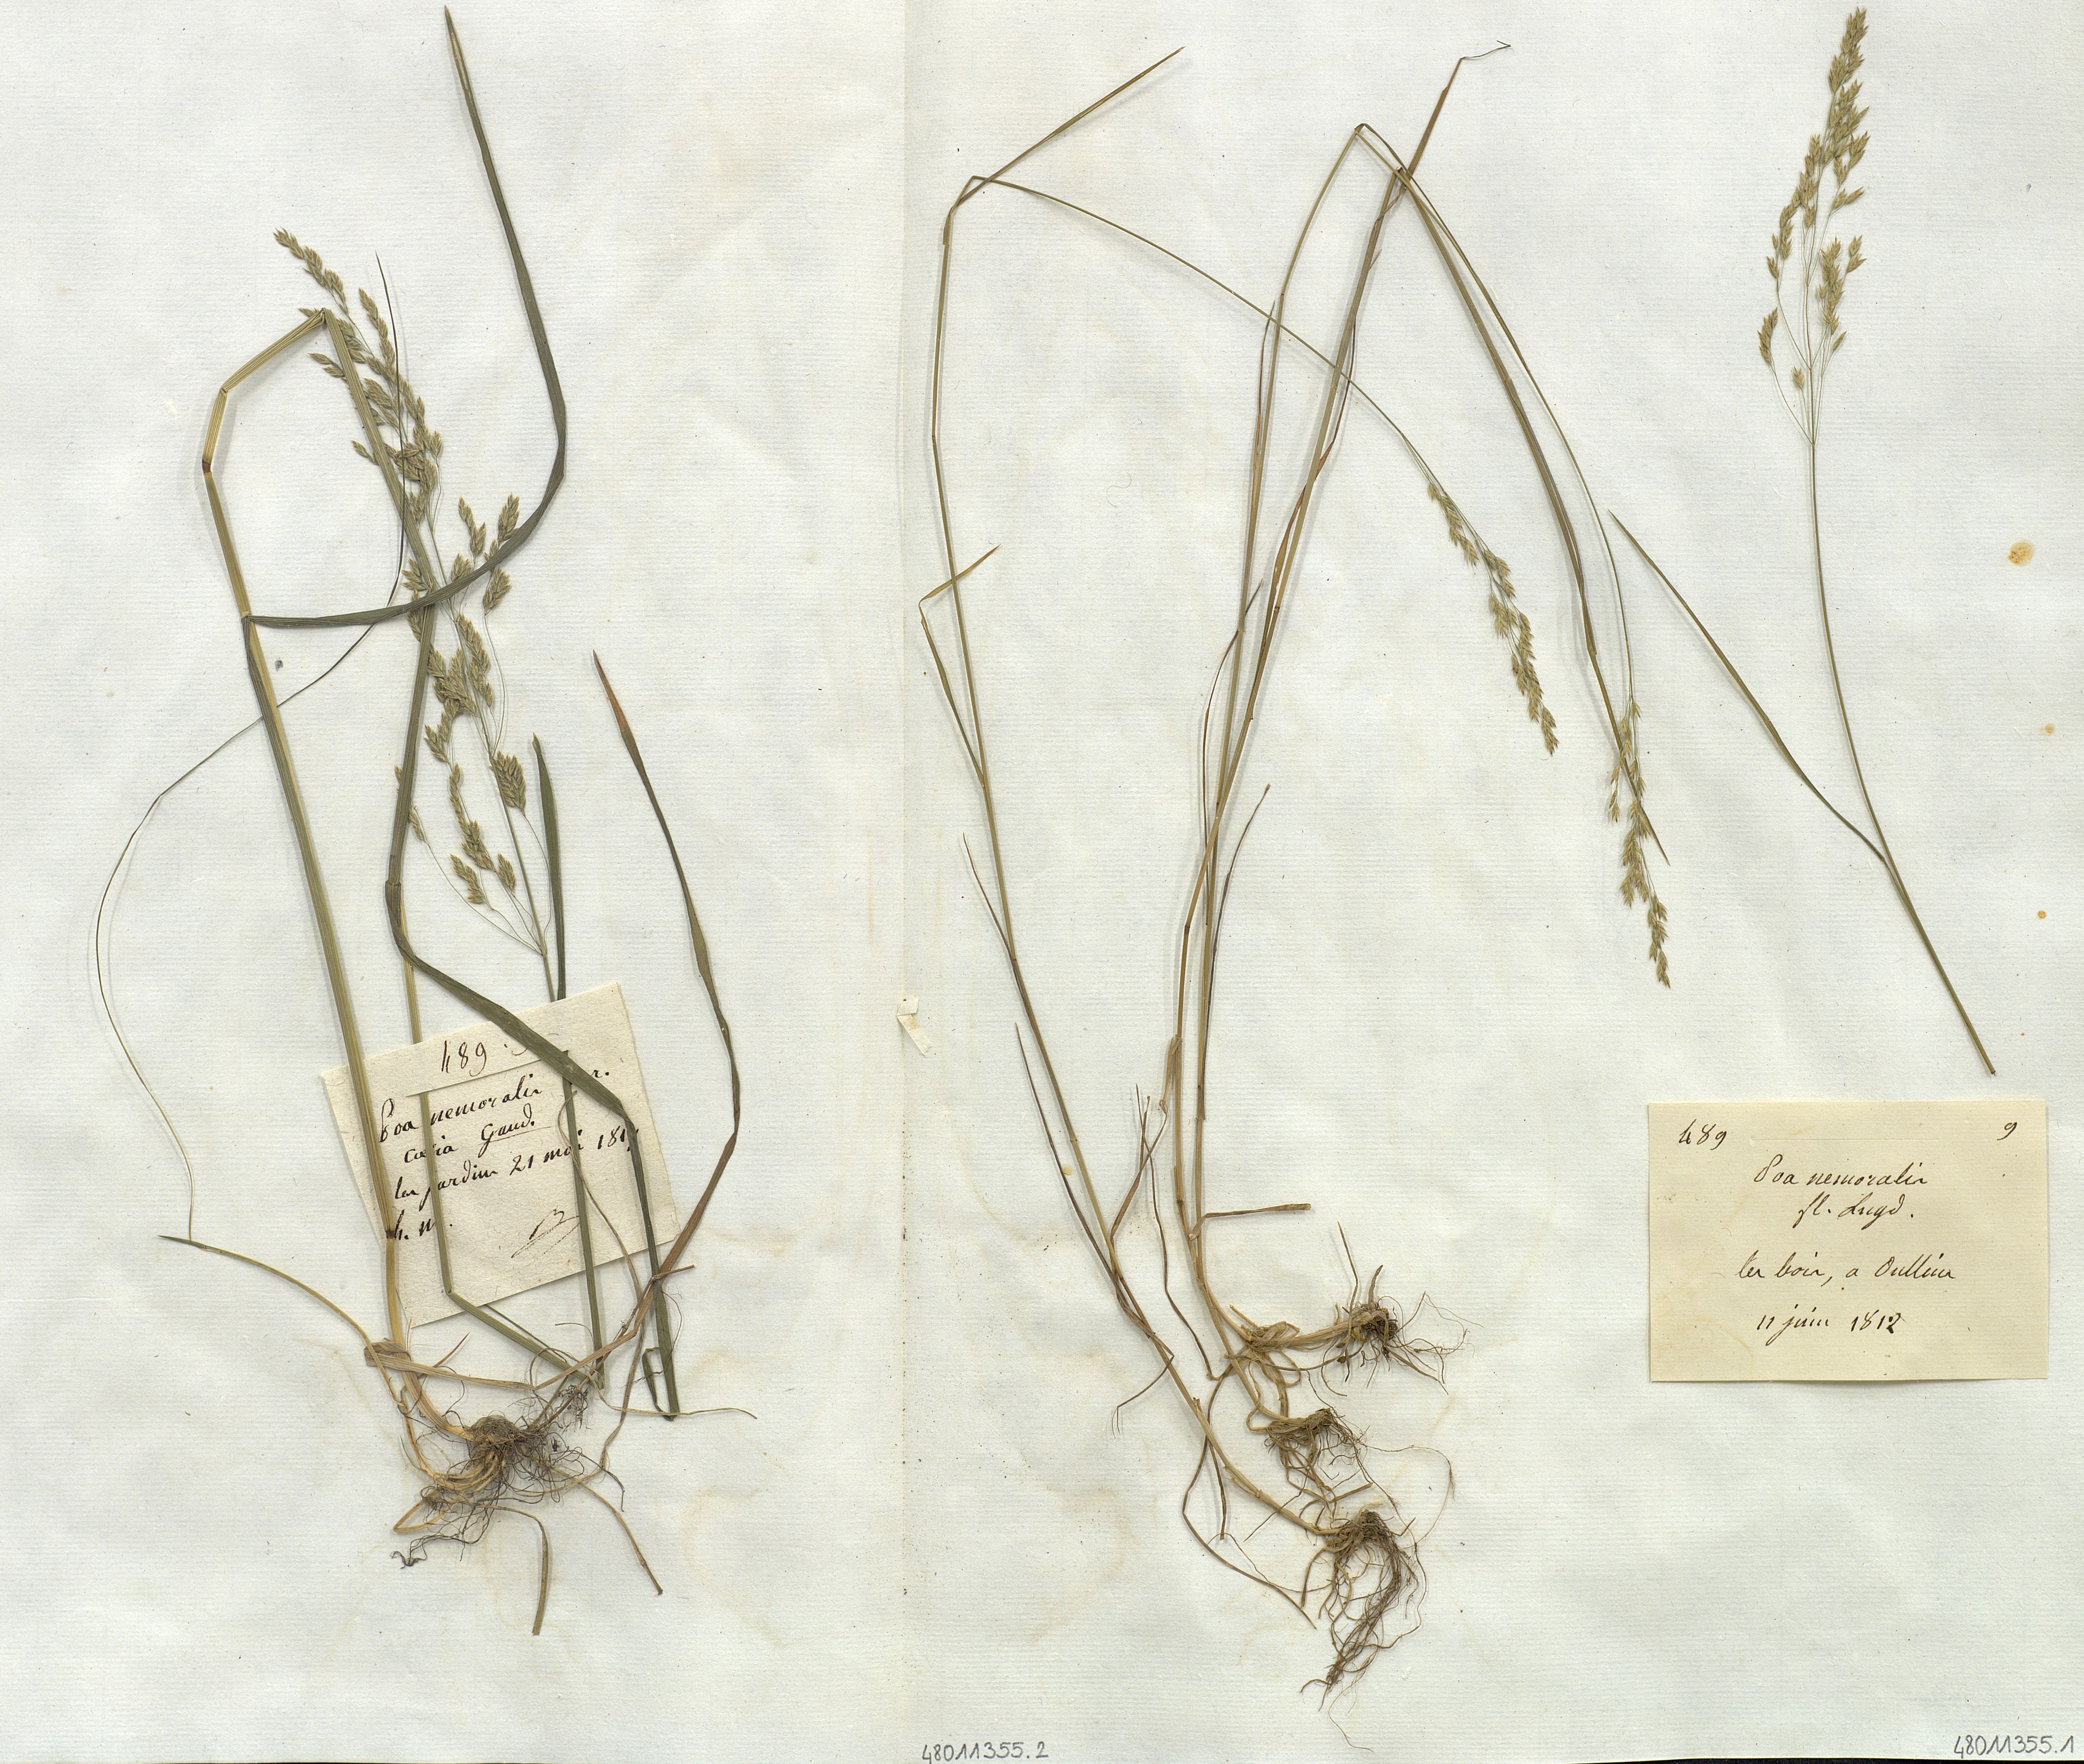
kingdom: Plantae
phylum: Tracheophyta
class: Liliopsida
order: Poales
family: Poaceae
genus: Poa
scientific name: Poa nemoralis
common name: Wood bluegrass
